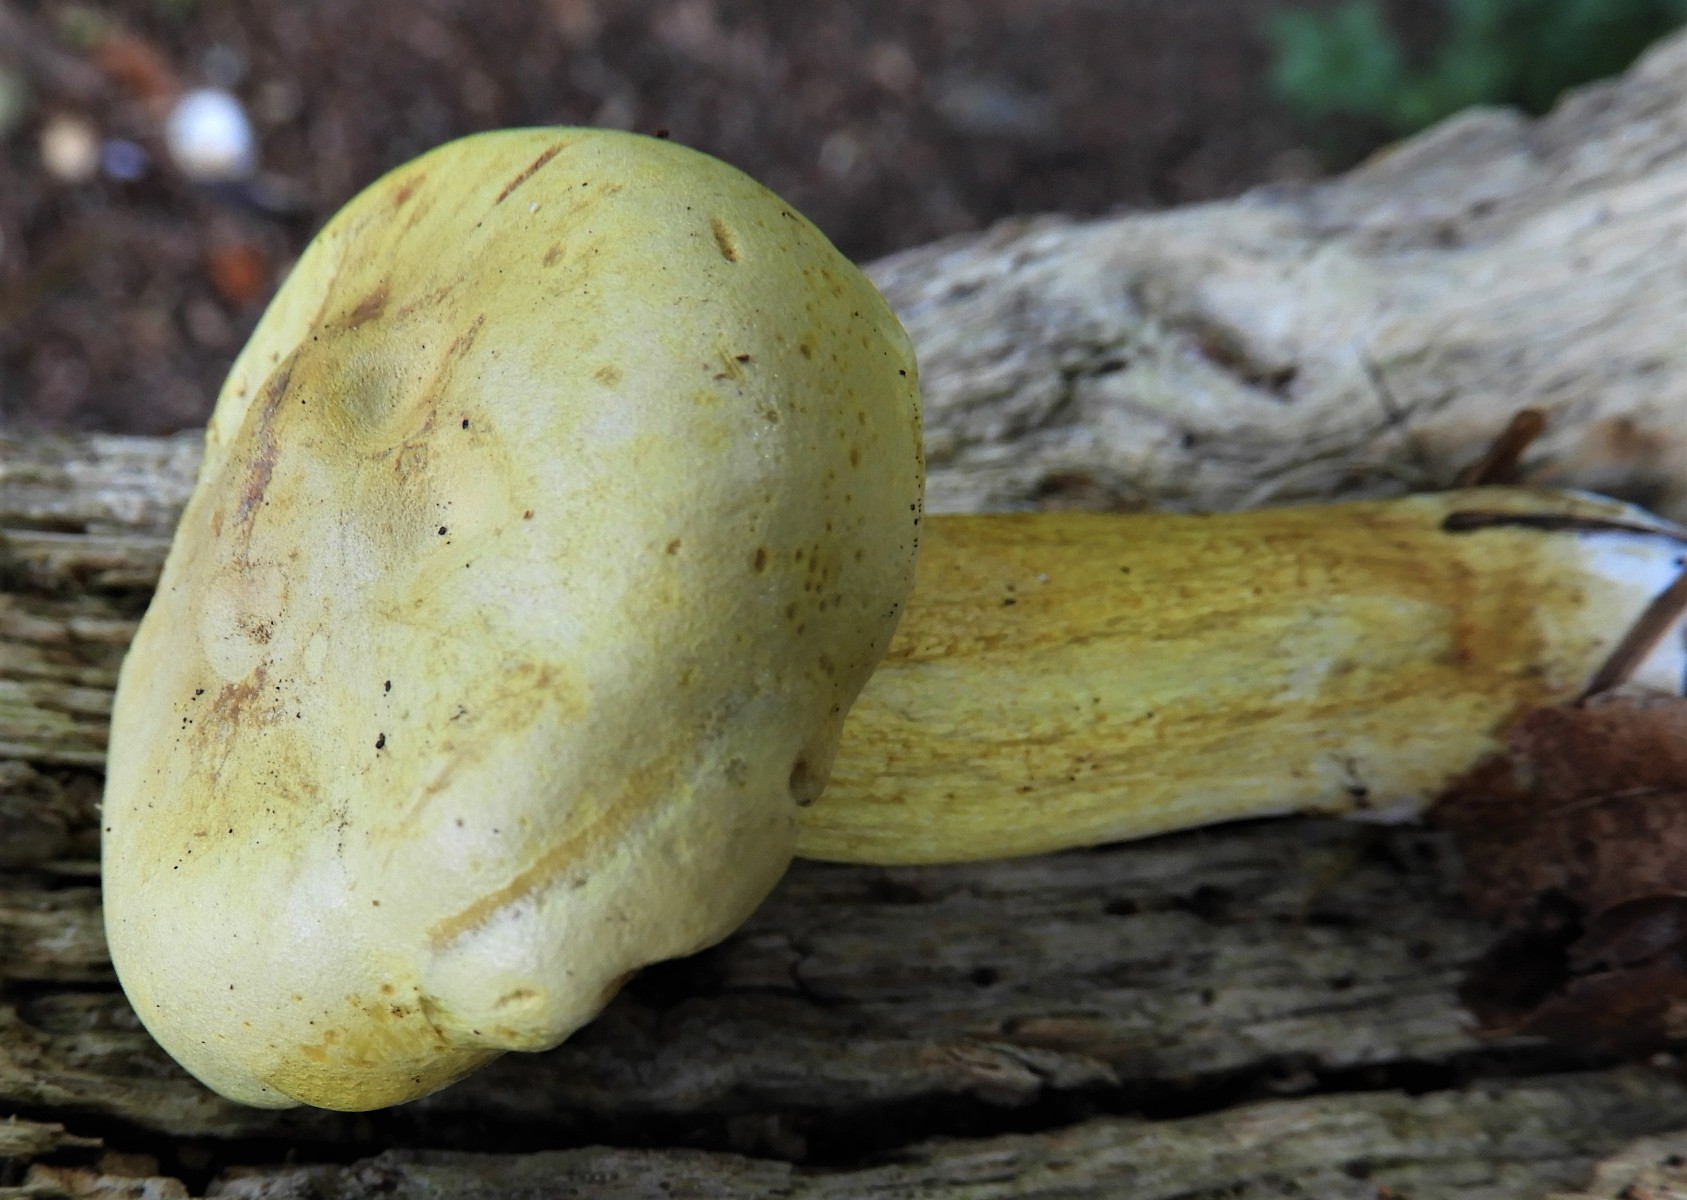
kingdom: Fungi
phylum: Basidiomycota
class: Agaricomycetes
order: Agaricales
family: Tricholomataceae
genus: Tricholoma
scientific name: Tricholoma sulphureum
